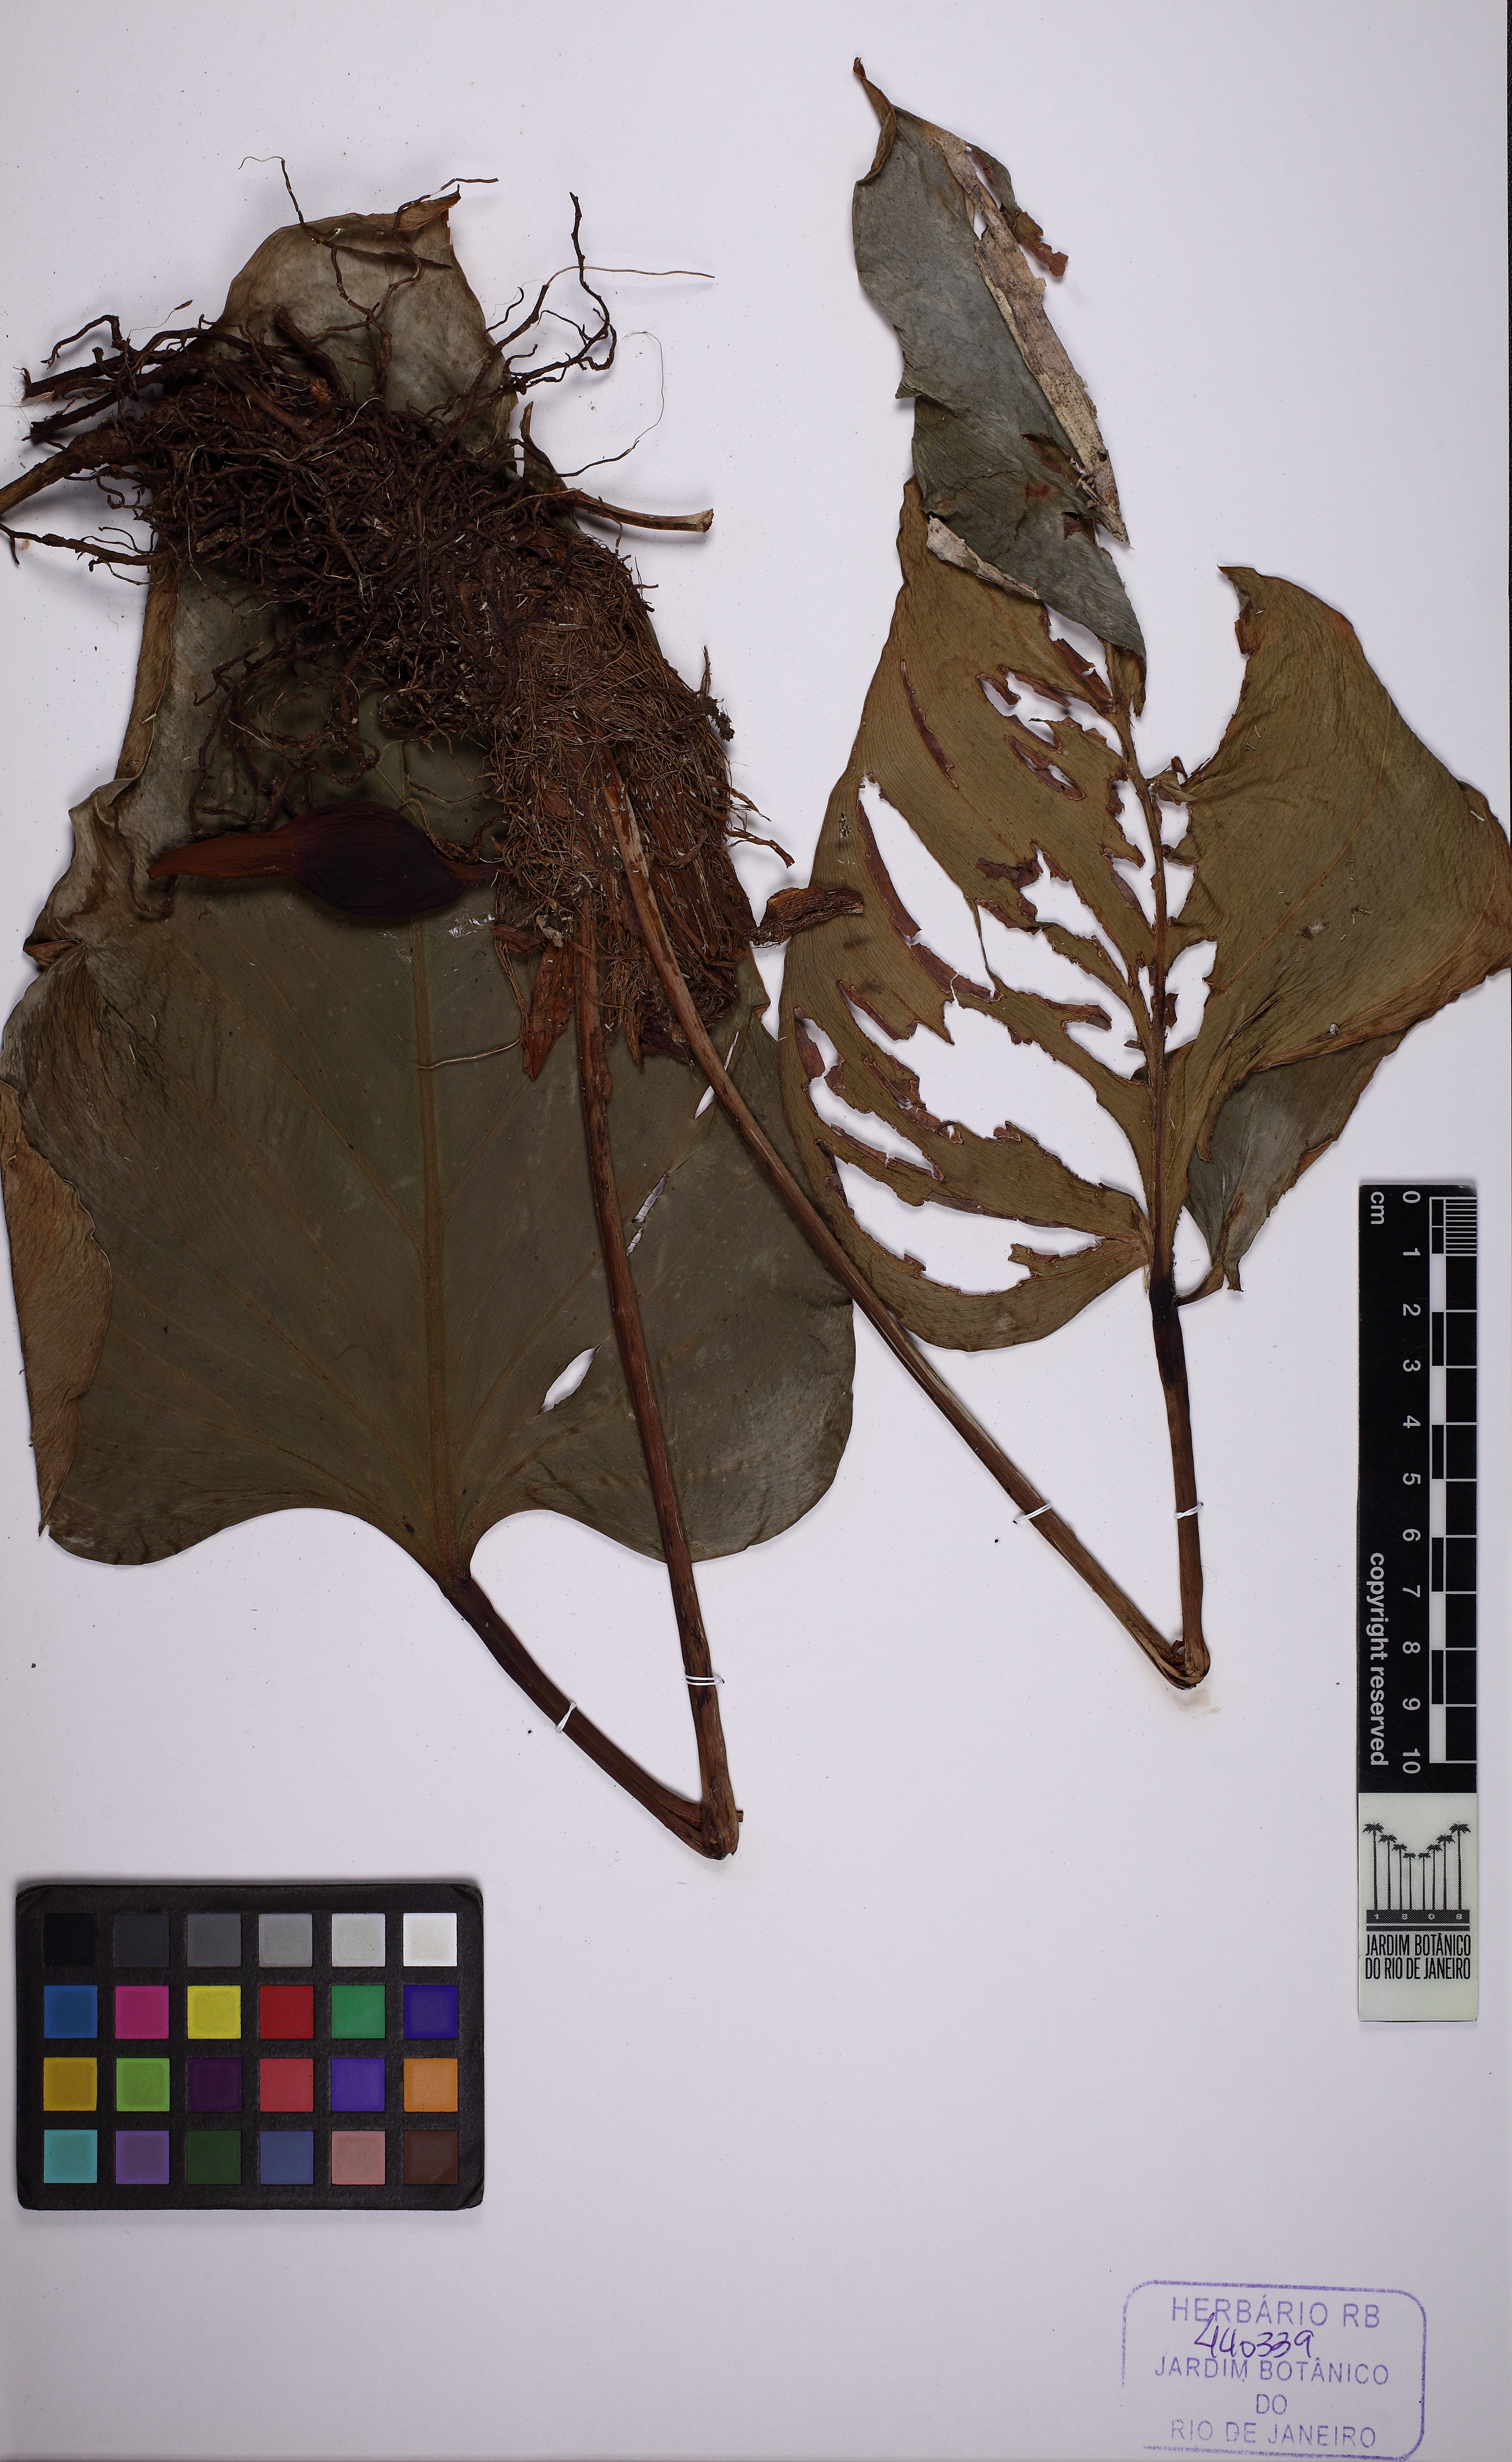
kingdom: Plantae
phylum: Tracheophyta
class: Liliopsida
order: Alismatales
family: Araceae
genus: Philodendron
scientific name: Philodendron fragrantissimum
